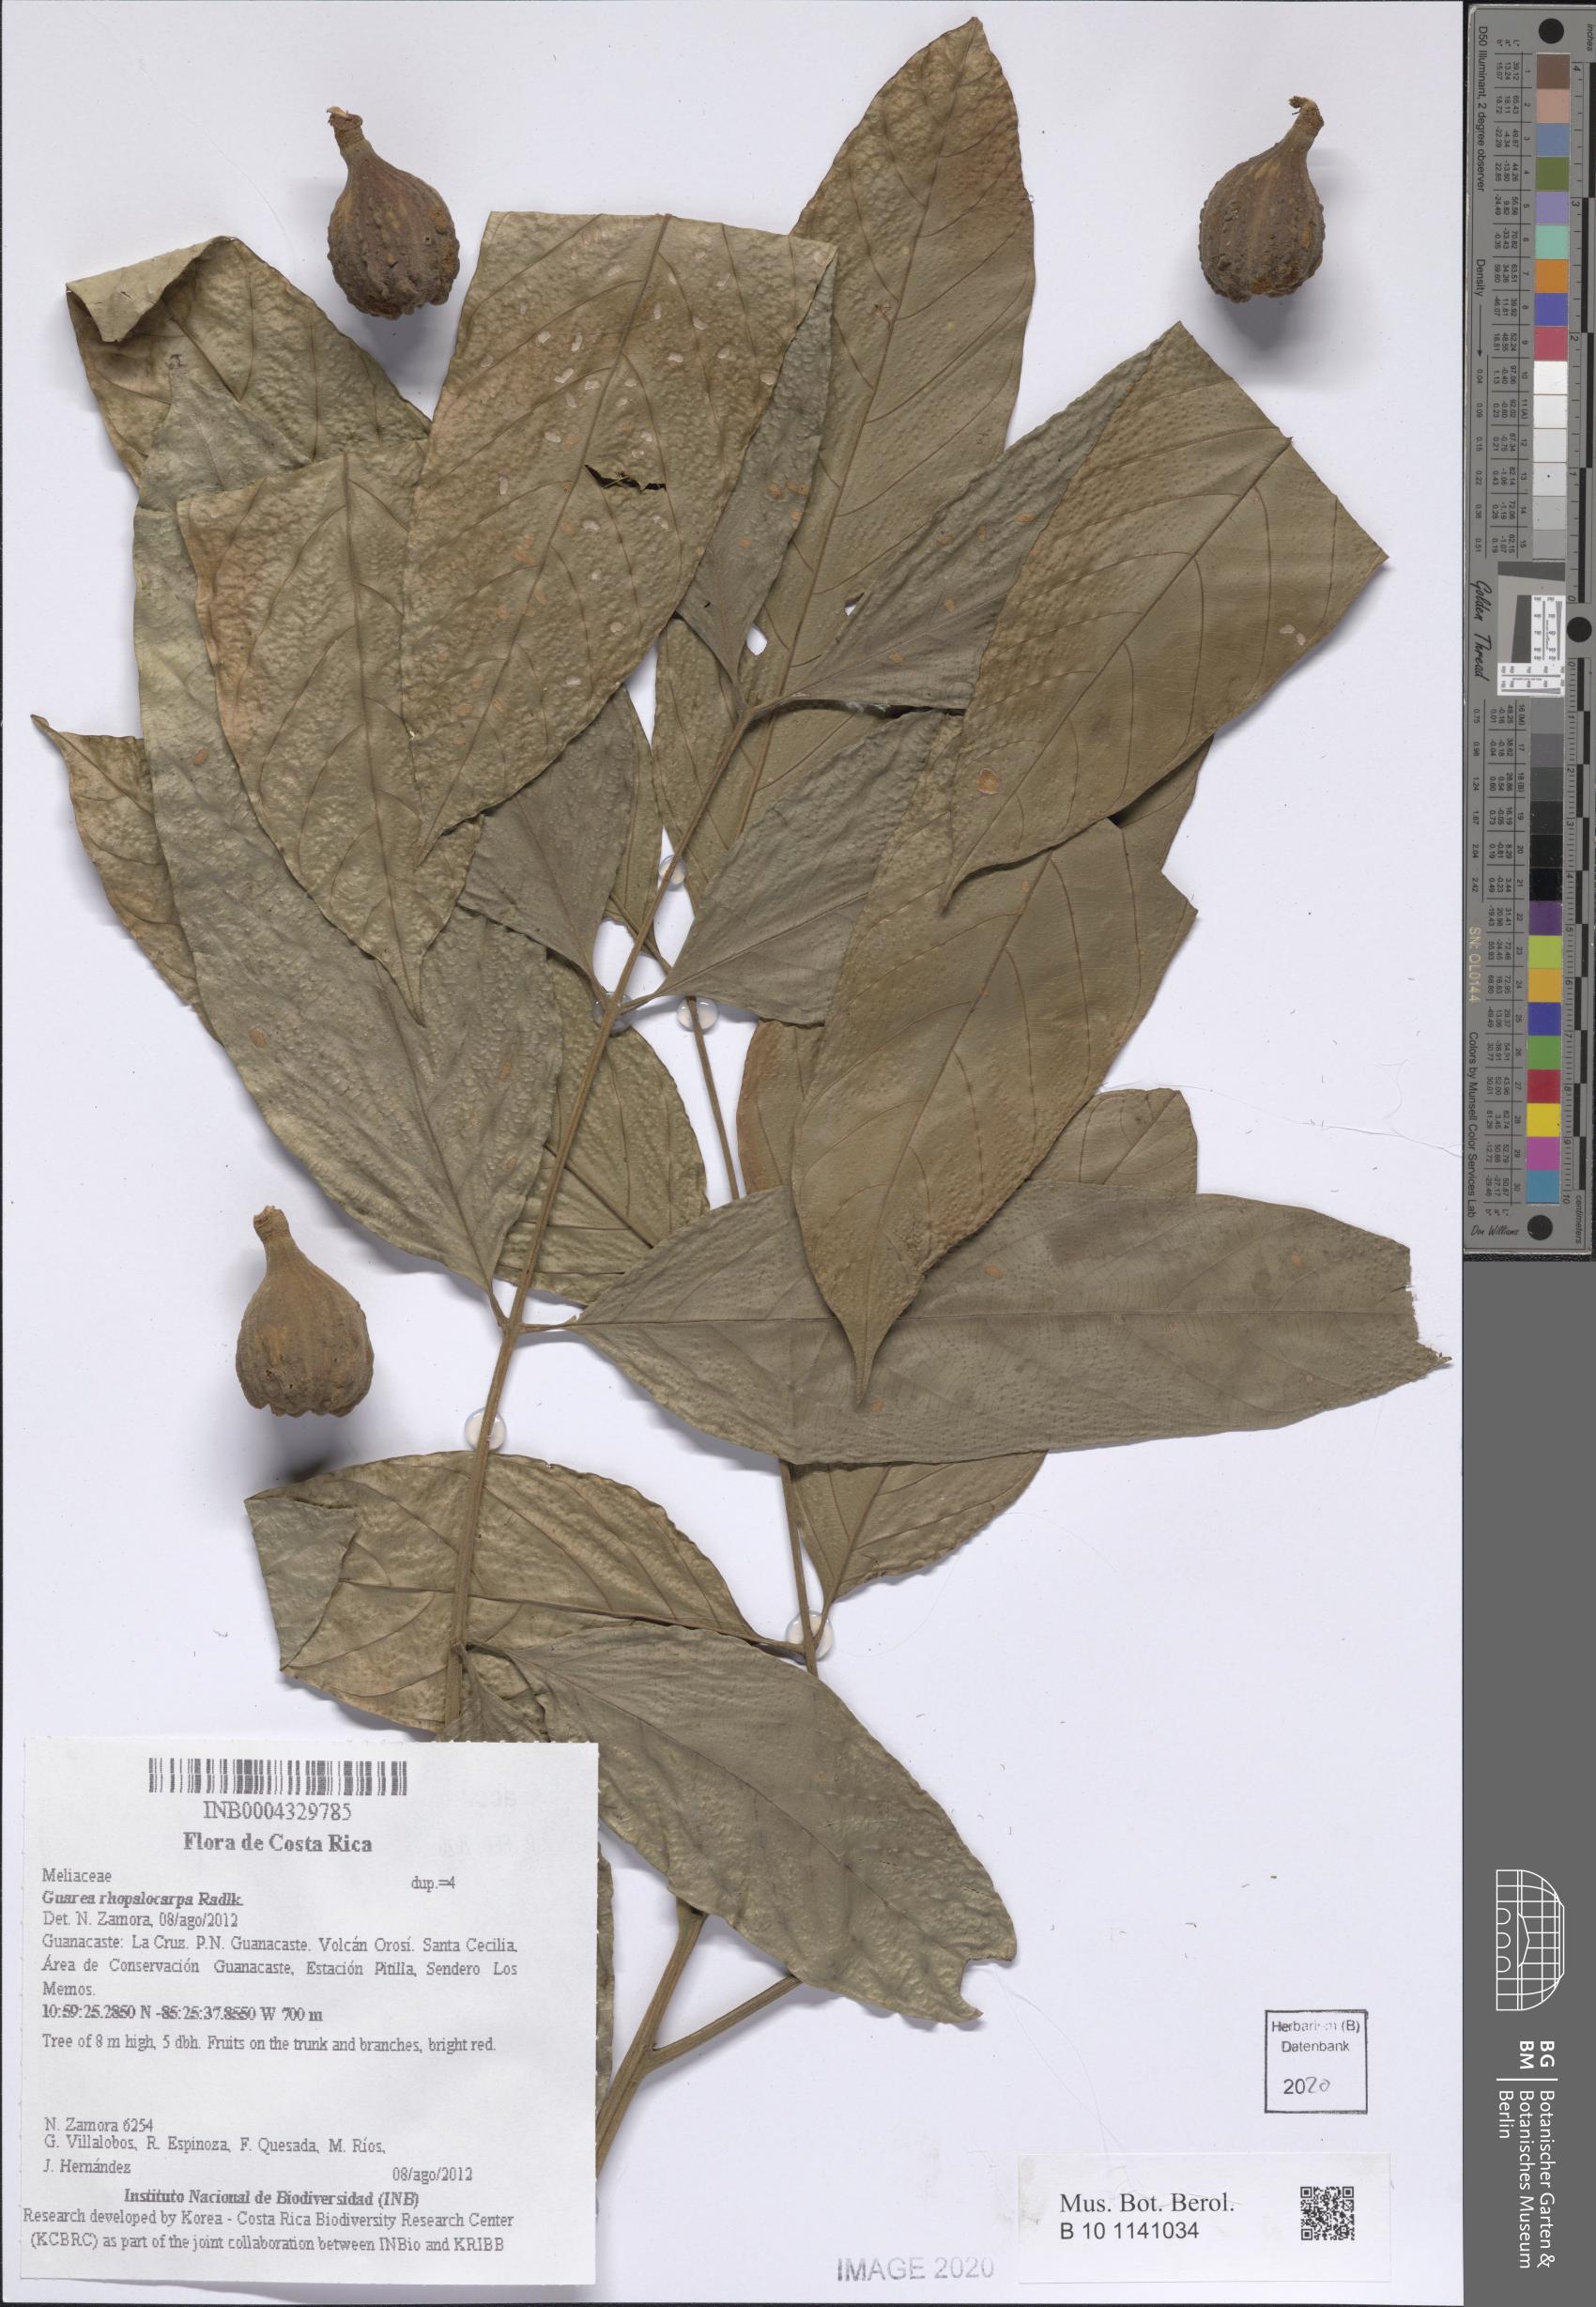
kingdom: Plantae
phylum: Tracheophyta
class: Magnoliopsida
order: Sapindales
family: Meliaceae
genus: Guarea
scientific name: Guarea rhopalocarpa
